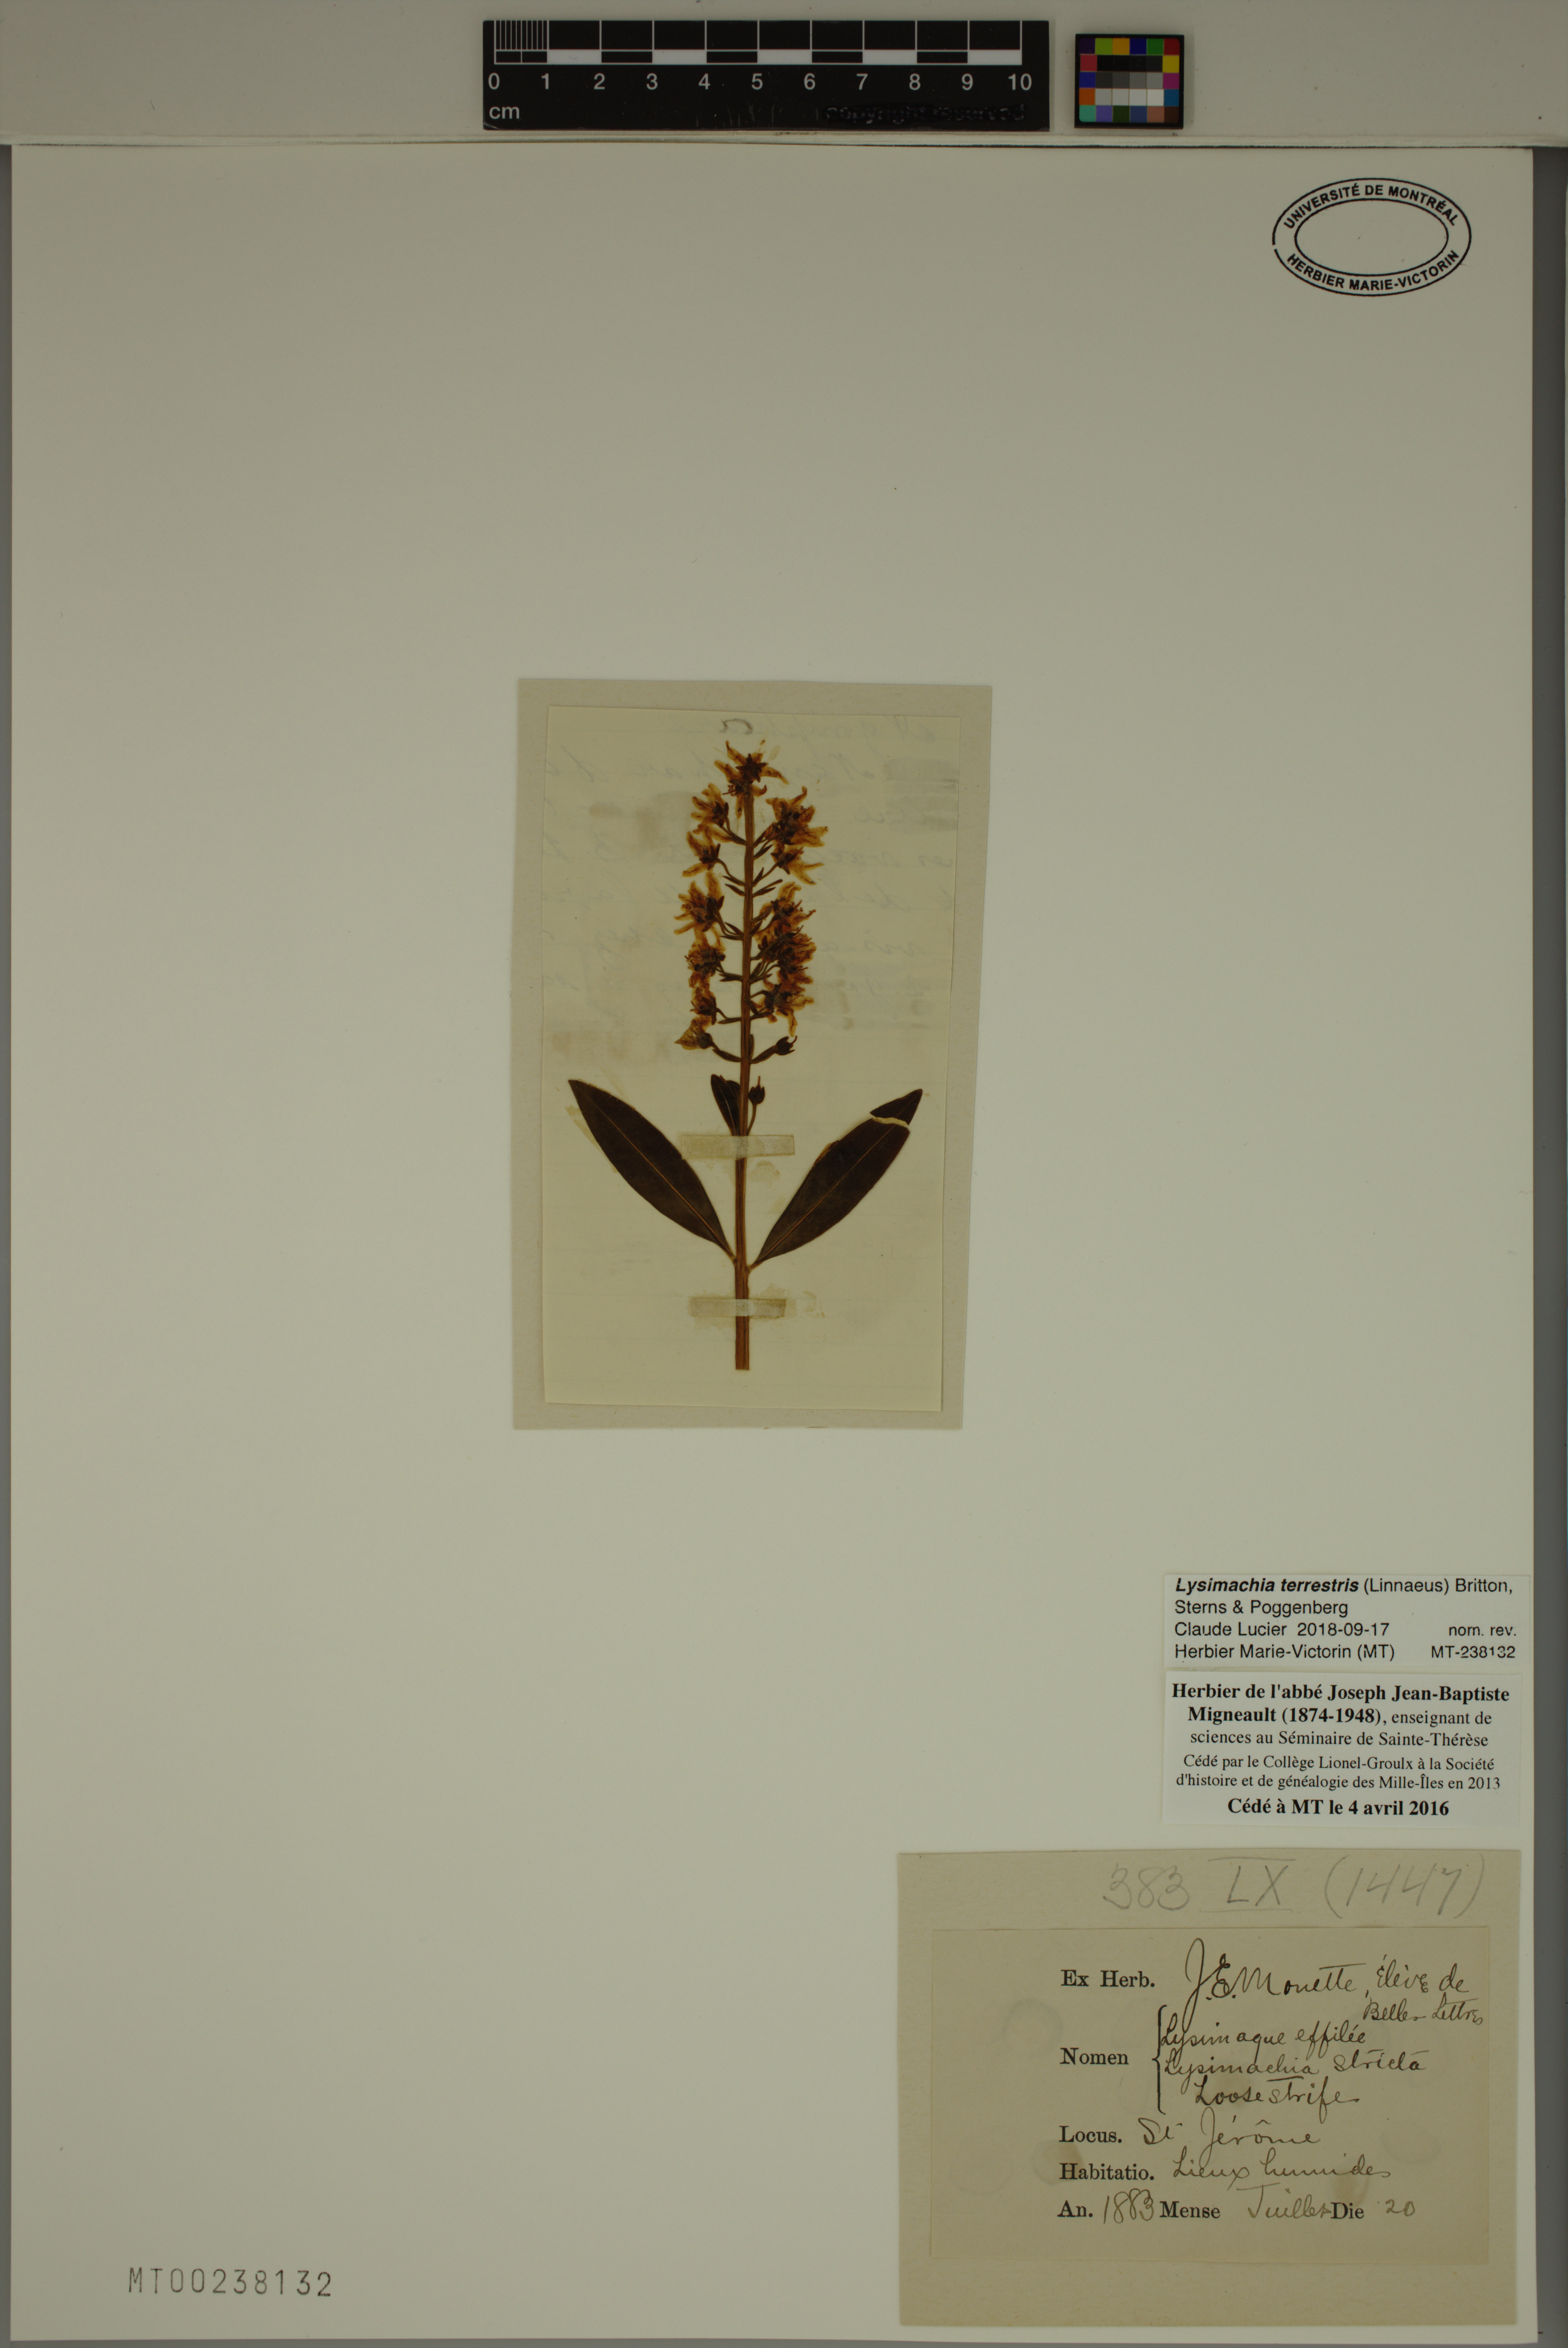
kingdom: Plantae
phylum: Tracheophyta
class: Magnoliopsida
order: Ericales
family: Primulaceae
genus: Lysimachia
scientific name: Lysimachia terrestris
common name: Lake loosestrife
